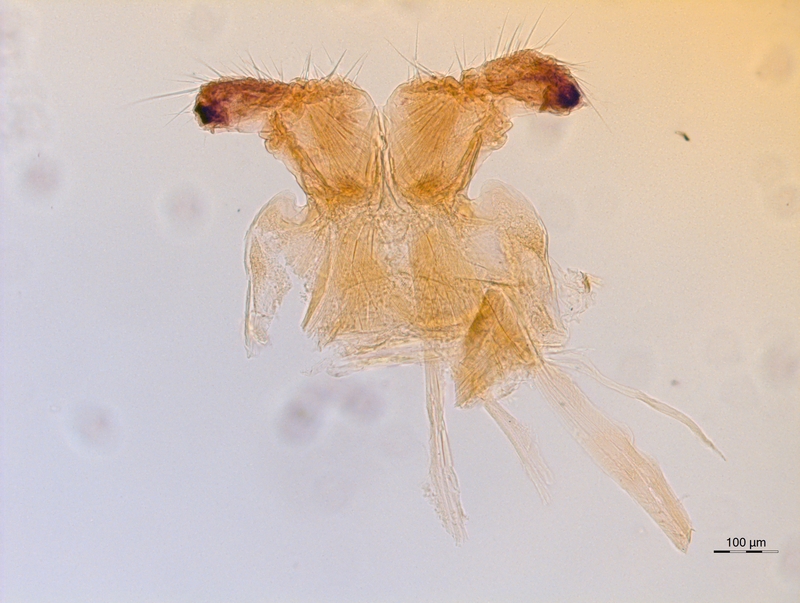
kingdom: Animalia
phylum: Arthropoda
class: Diplopoda
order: Chordeumatida
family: Chordeumatidae
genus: Mycogona
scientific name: Mycogona germanica
